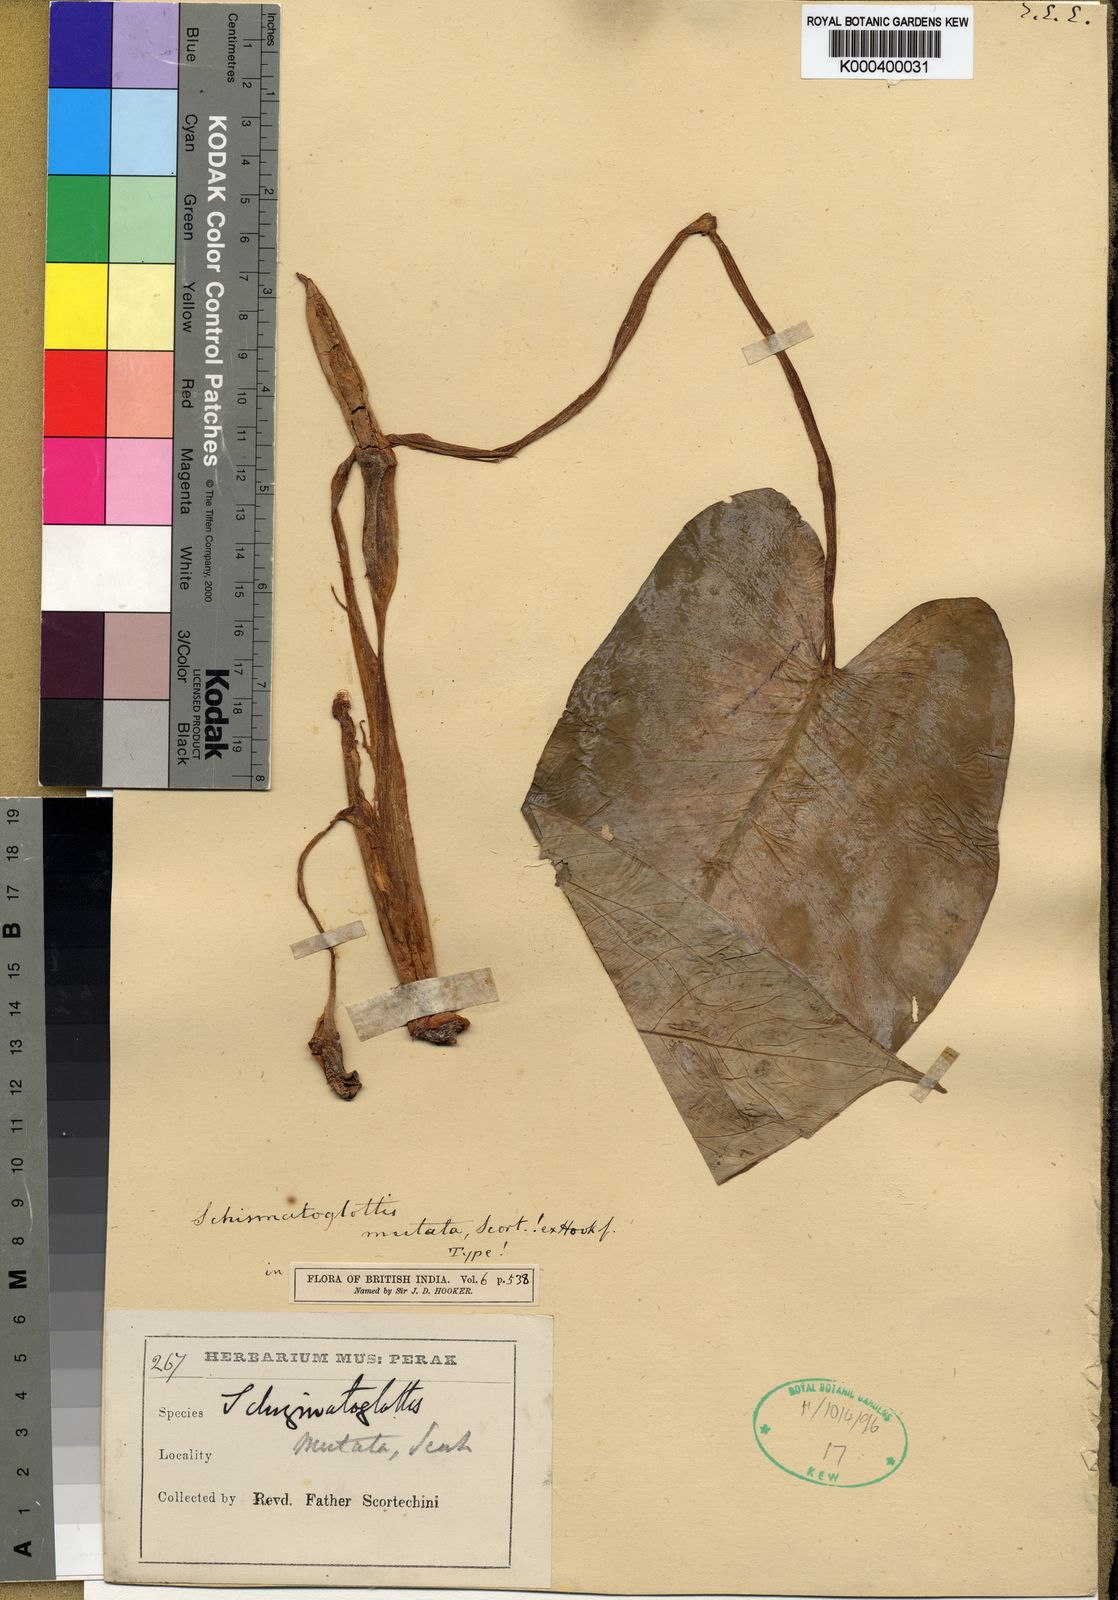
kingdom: Plantae
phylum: Tracheophyta
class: Liliopsida
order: Alismatales
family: Araceae
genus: Apoballis
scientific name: Apoballis mutata
